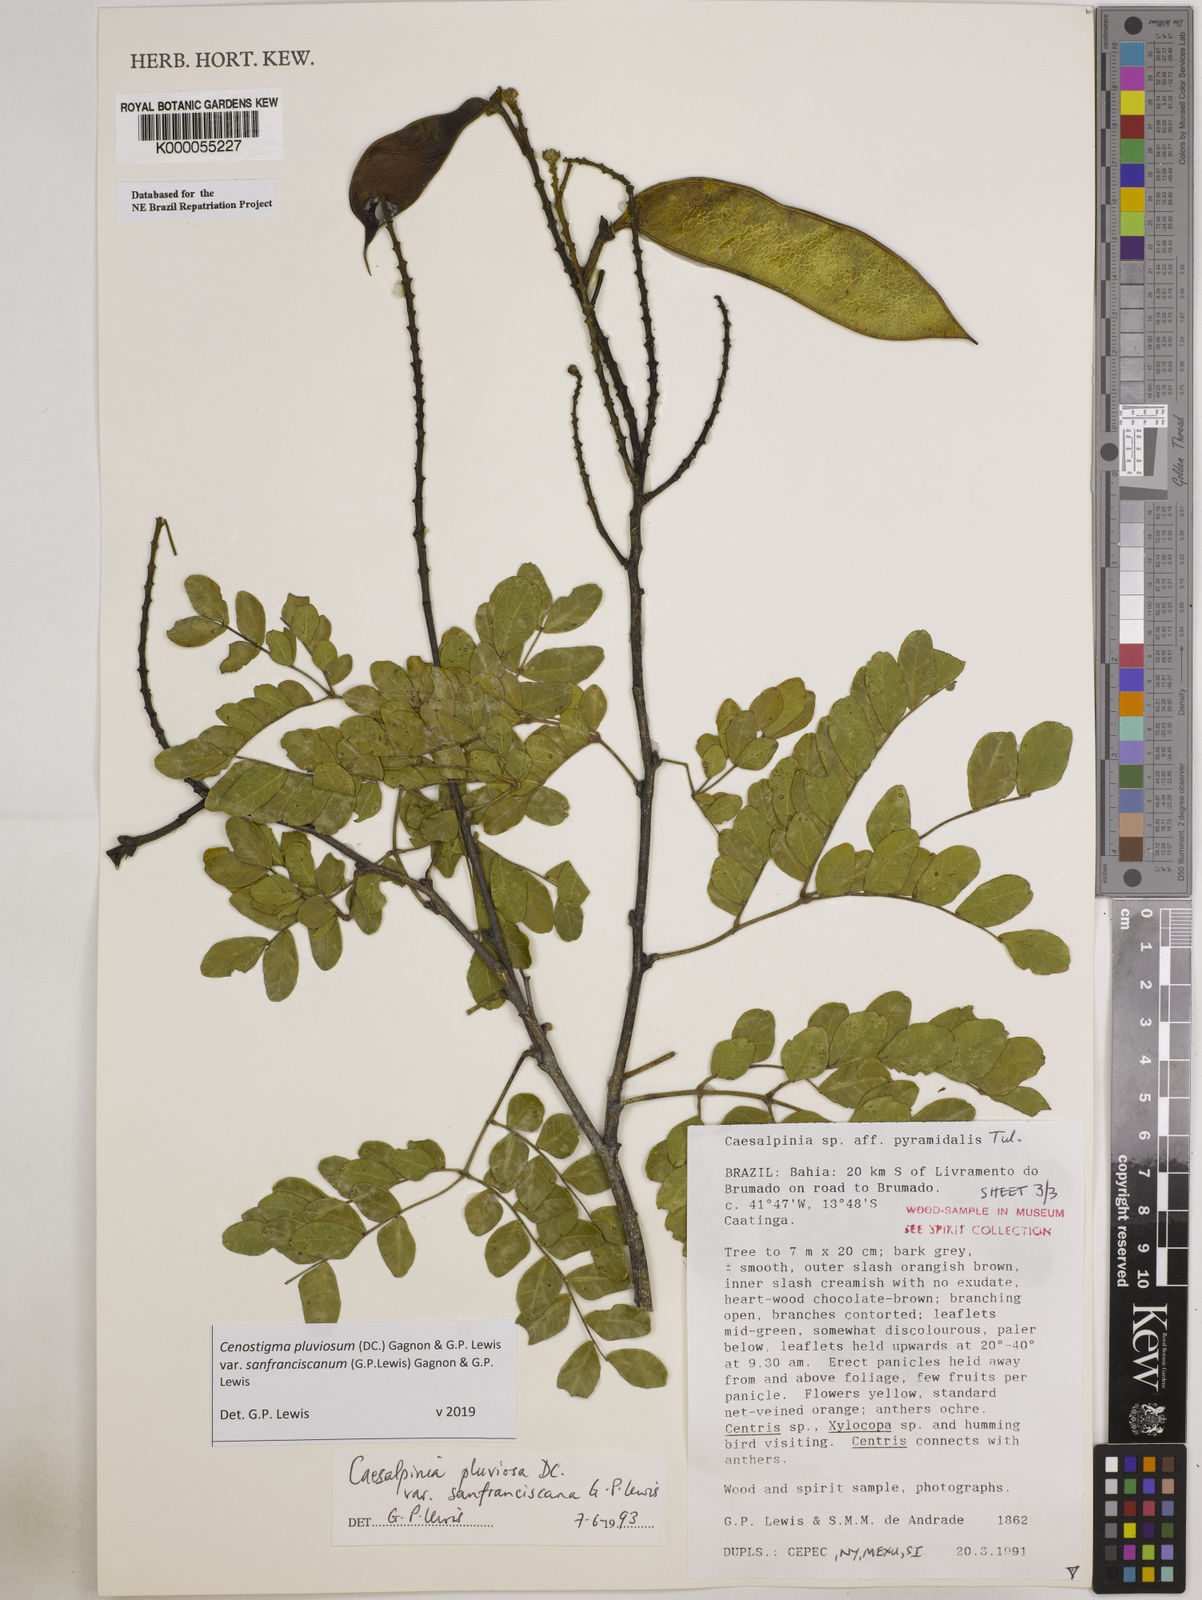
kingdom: Plantae
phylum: Tracheophyta
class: Magnoliopsida
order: Fabales
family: Fabaceae
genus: Cenostigma
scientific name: Cenostigma pluviosum
